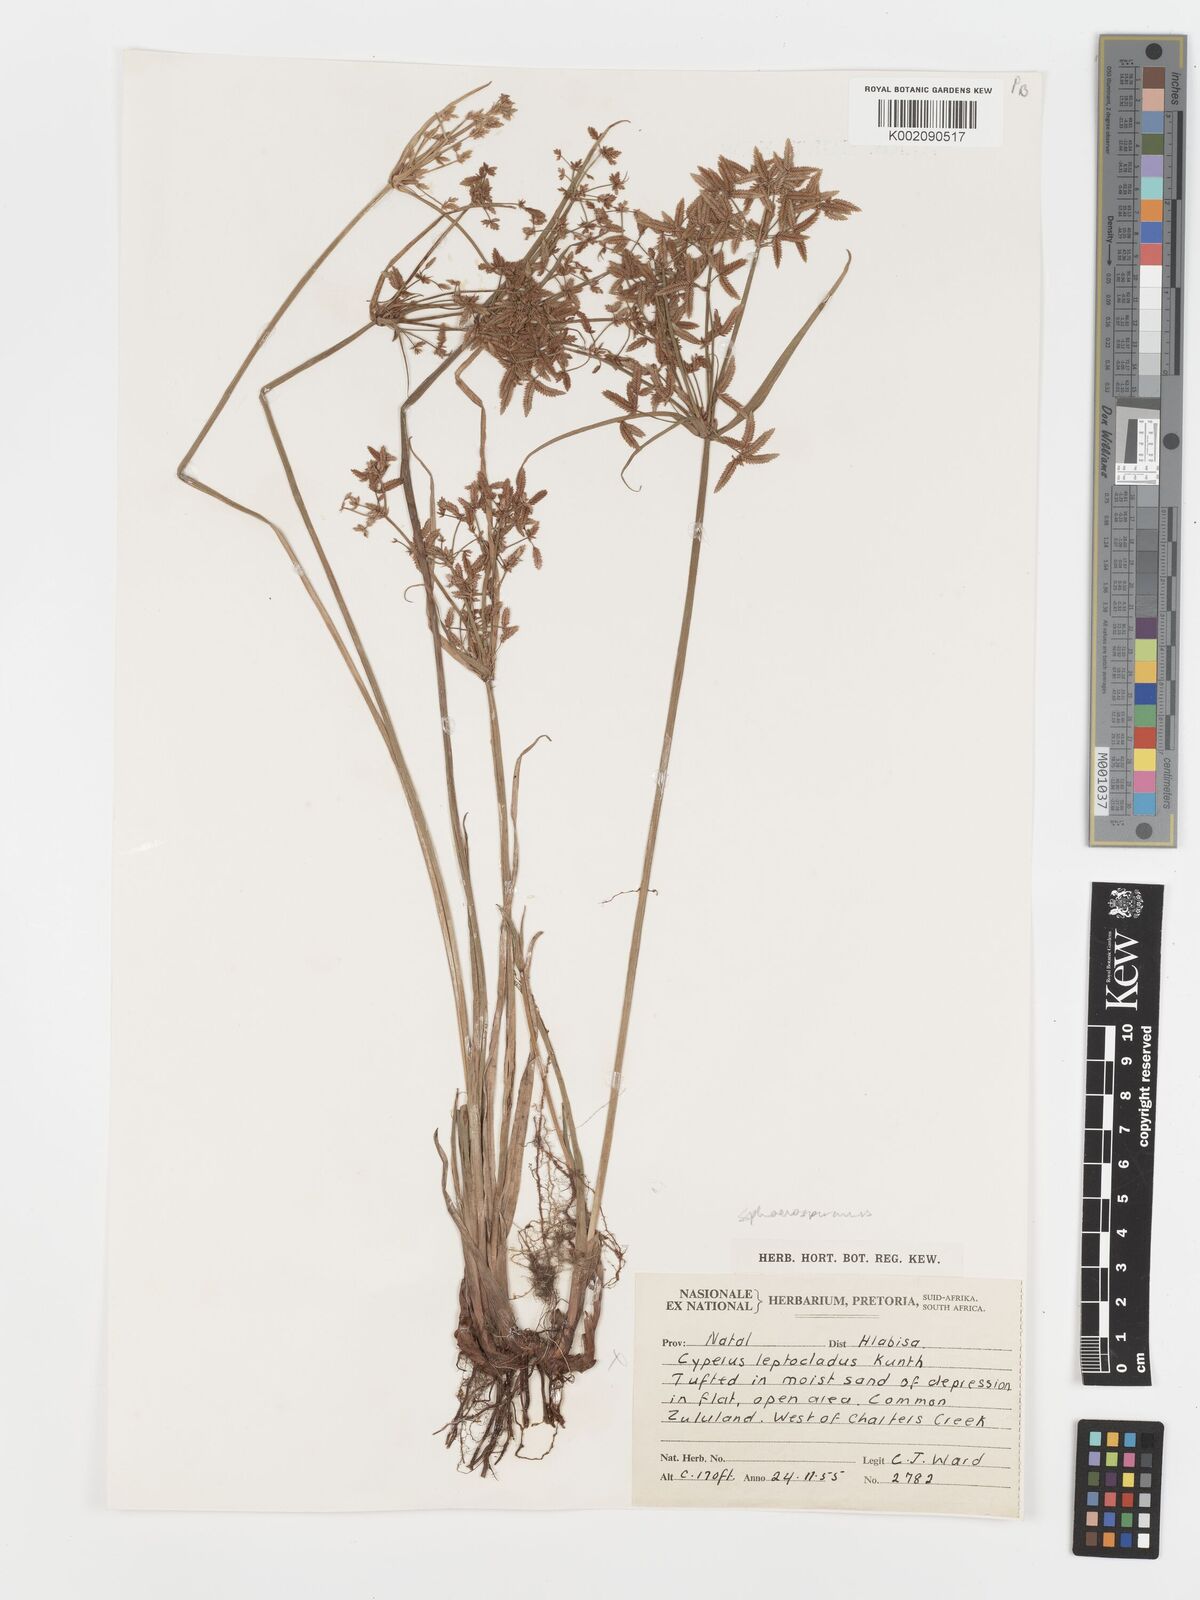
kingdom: Plantae
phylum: Tracheophyta
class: Liliopsida
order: Poales
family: Cyperaceae
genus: Cyperus
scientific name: Cyperus sphaerospermus
